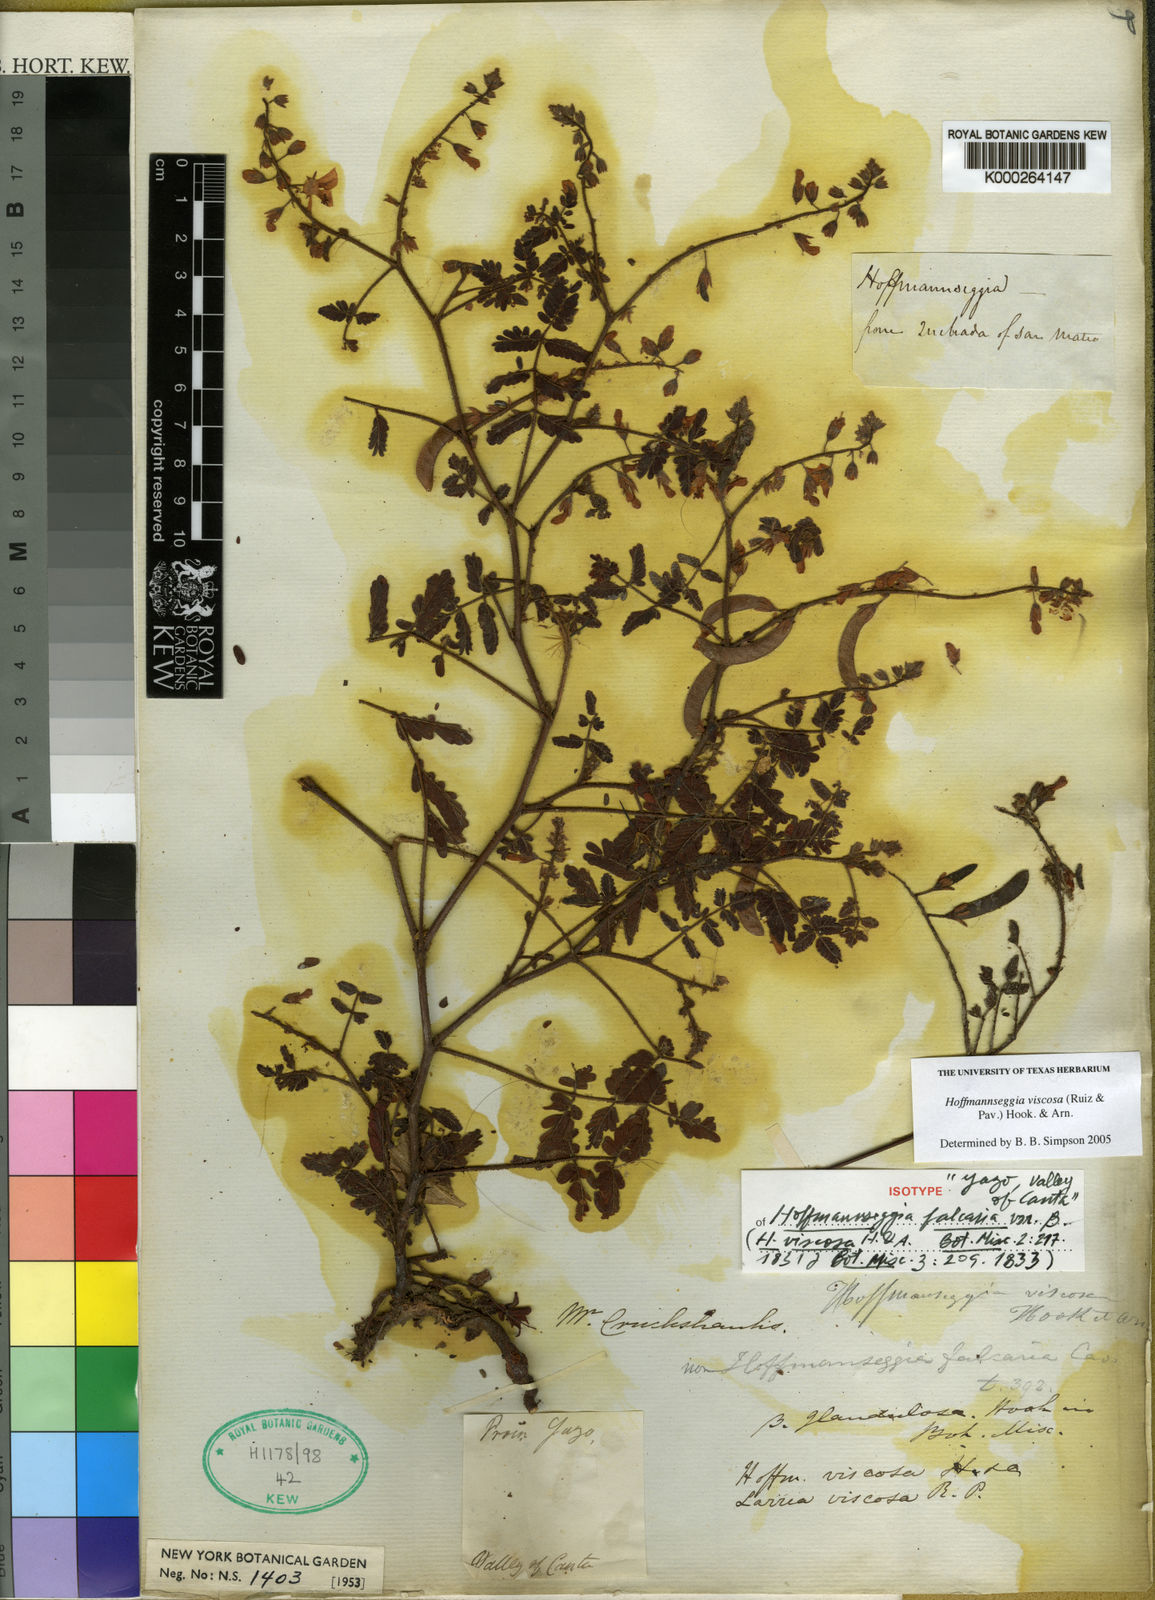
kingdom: Plantae
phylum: Tracheophyta
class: Magnoliopsida
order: Fabales
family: Fabaceae
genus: Hoffmannseggia
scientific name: Hoffmannseggia viscosa
